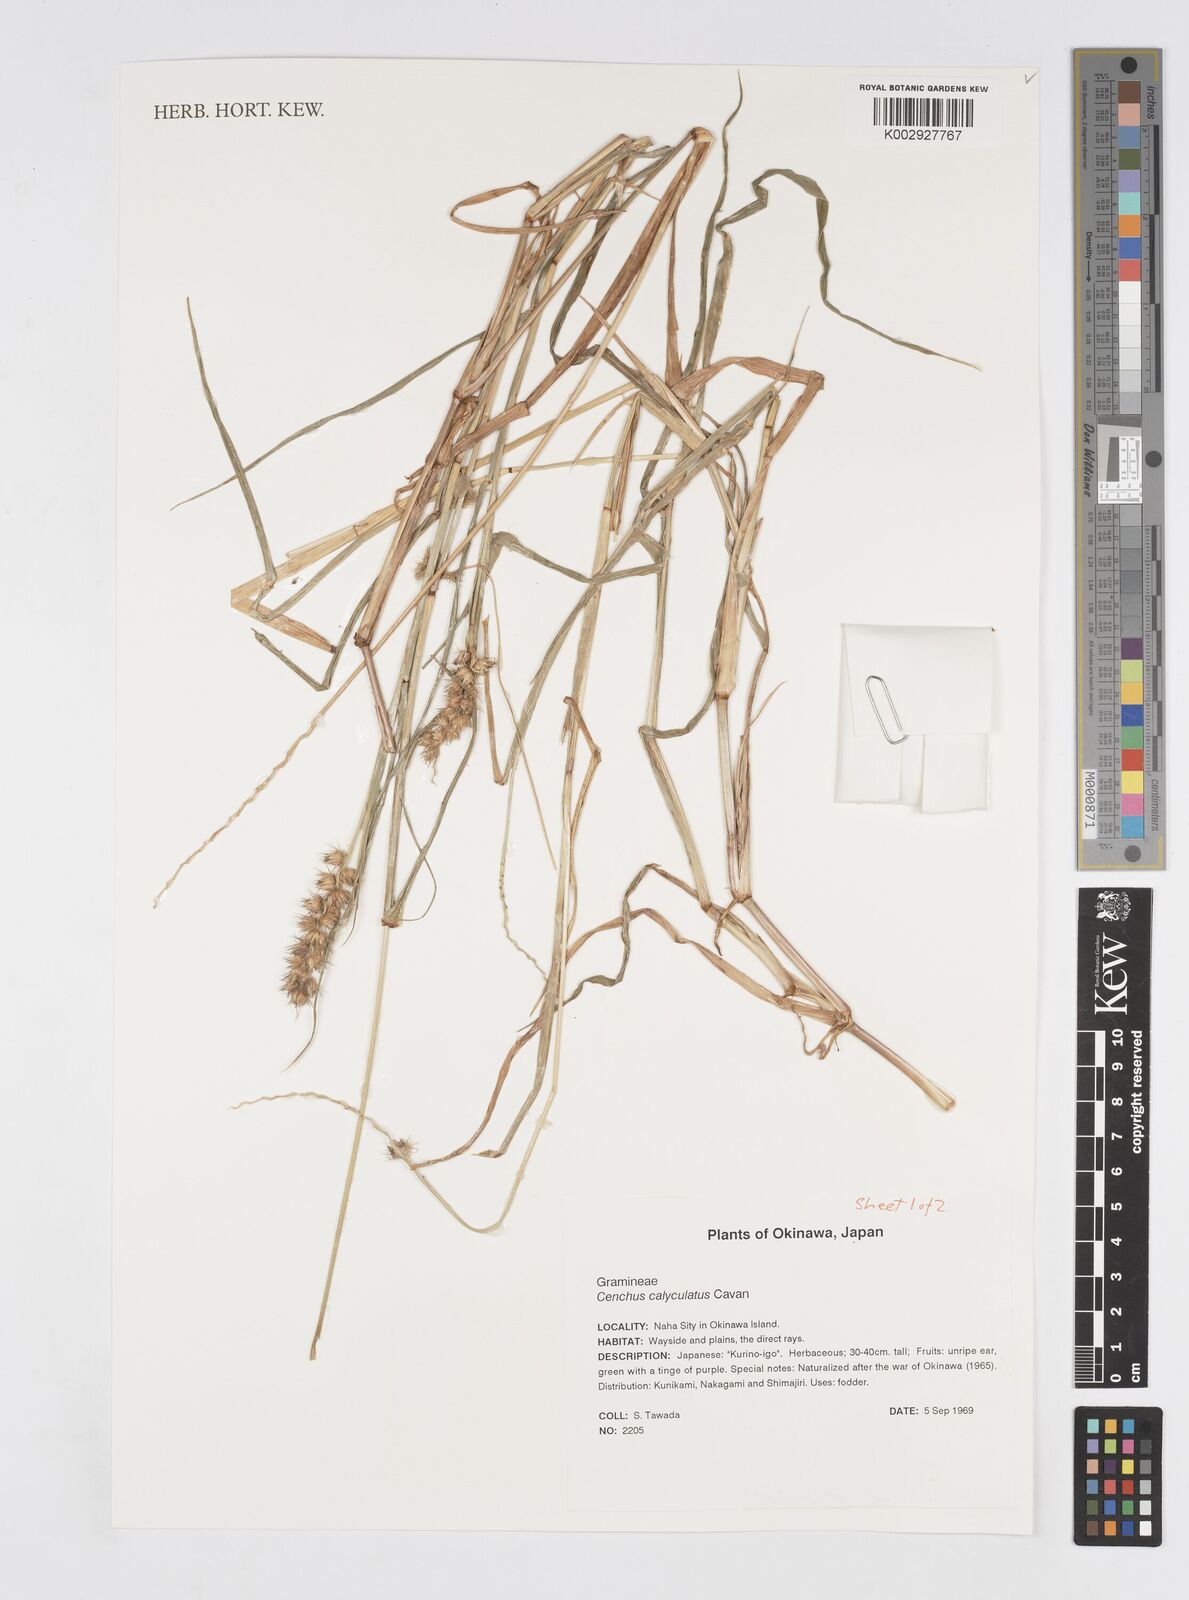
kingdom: Plantae
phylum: Tracheophyta
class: Liliopsida
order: Poales
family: Poaceae
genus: Cenchrus
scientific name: Cenchrus caliculatus
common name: Large bur grass
